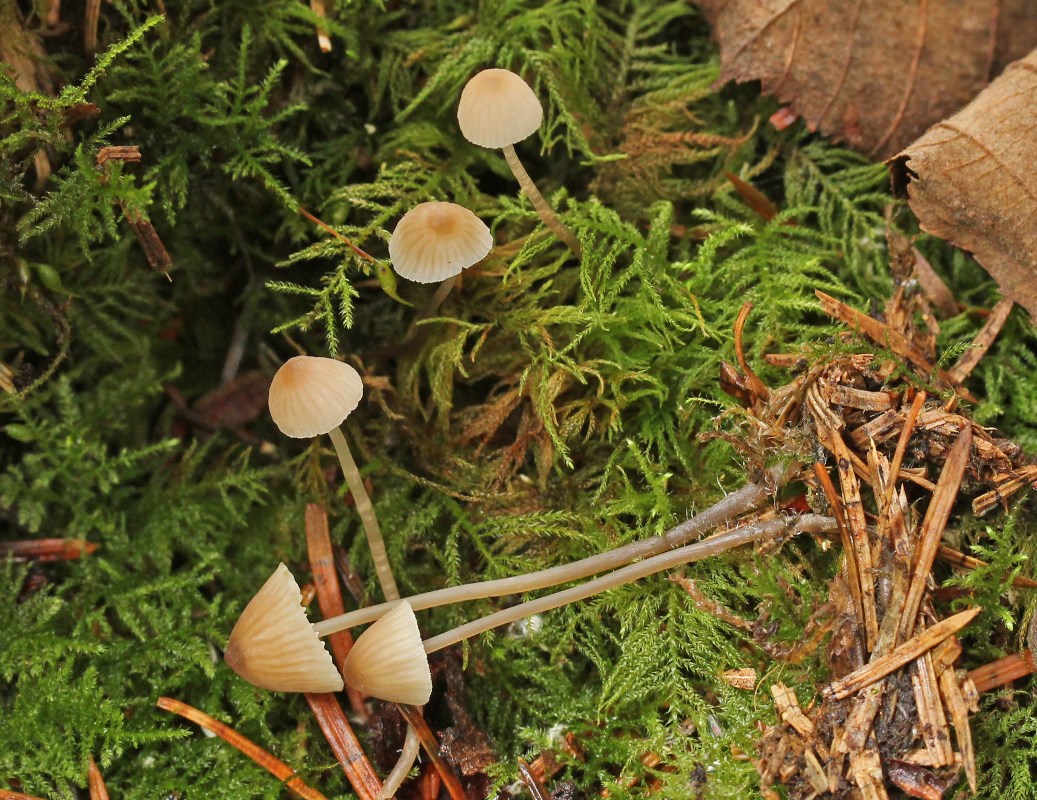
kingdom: Fungi
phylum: Basidiomycota
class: Agaricomycetes
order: Agaricales
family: Mycenaceae
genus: Mycena
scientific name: Mycena metata
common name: rødlig huesvamp
